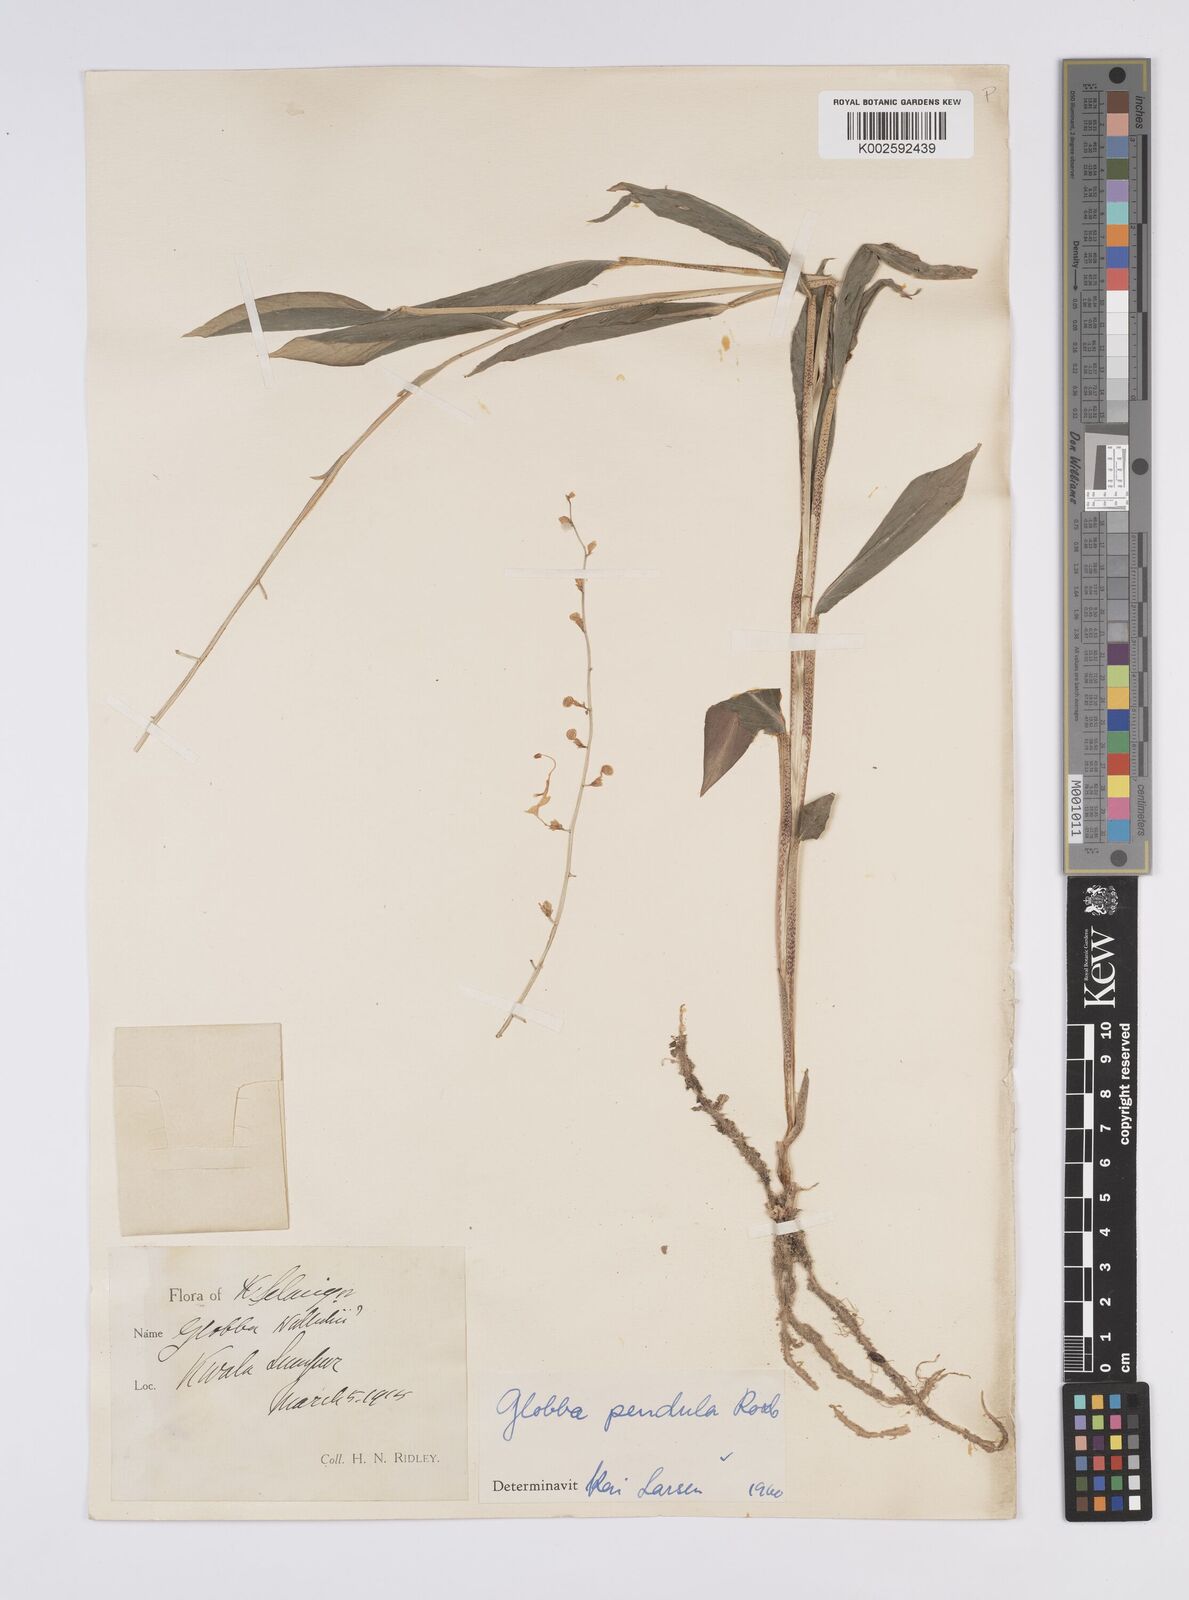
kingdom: Plantae
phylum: Tracheophyta
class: Liliopsida
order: Zingiberales
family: Zingiberaceae
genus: Globba
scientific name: Globba pendula
